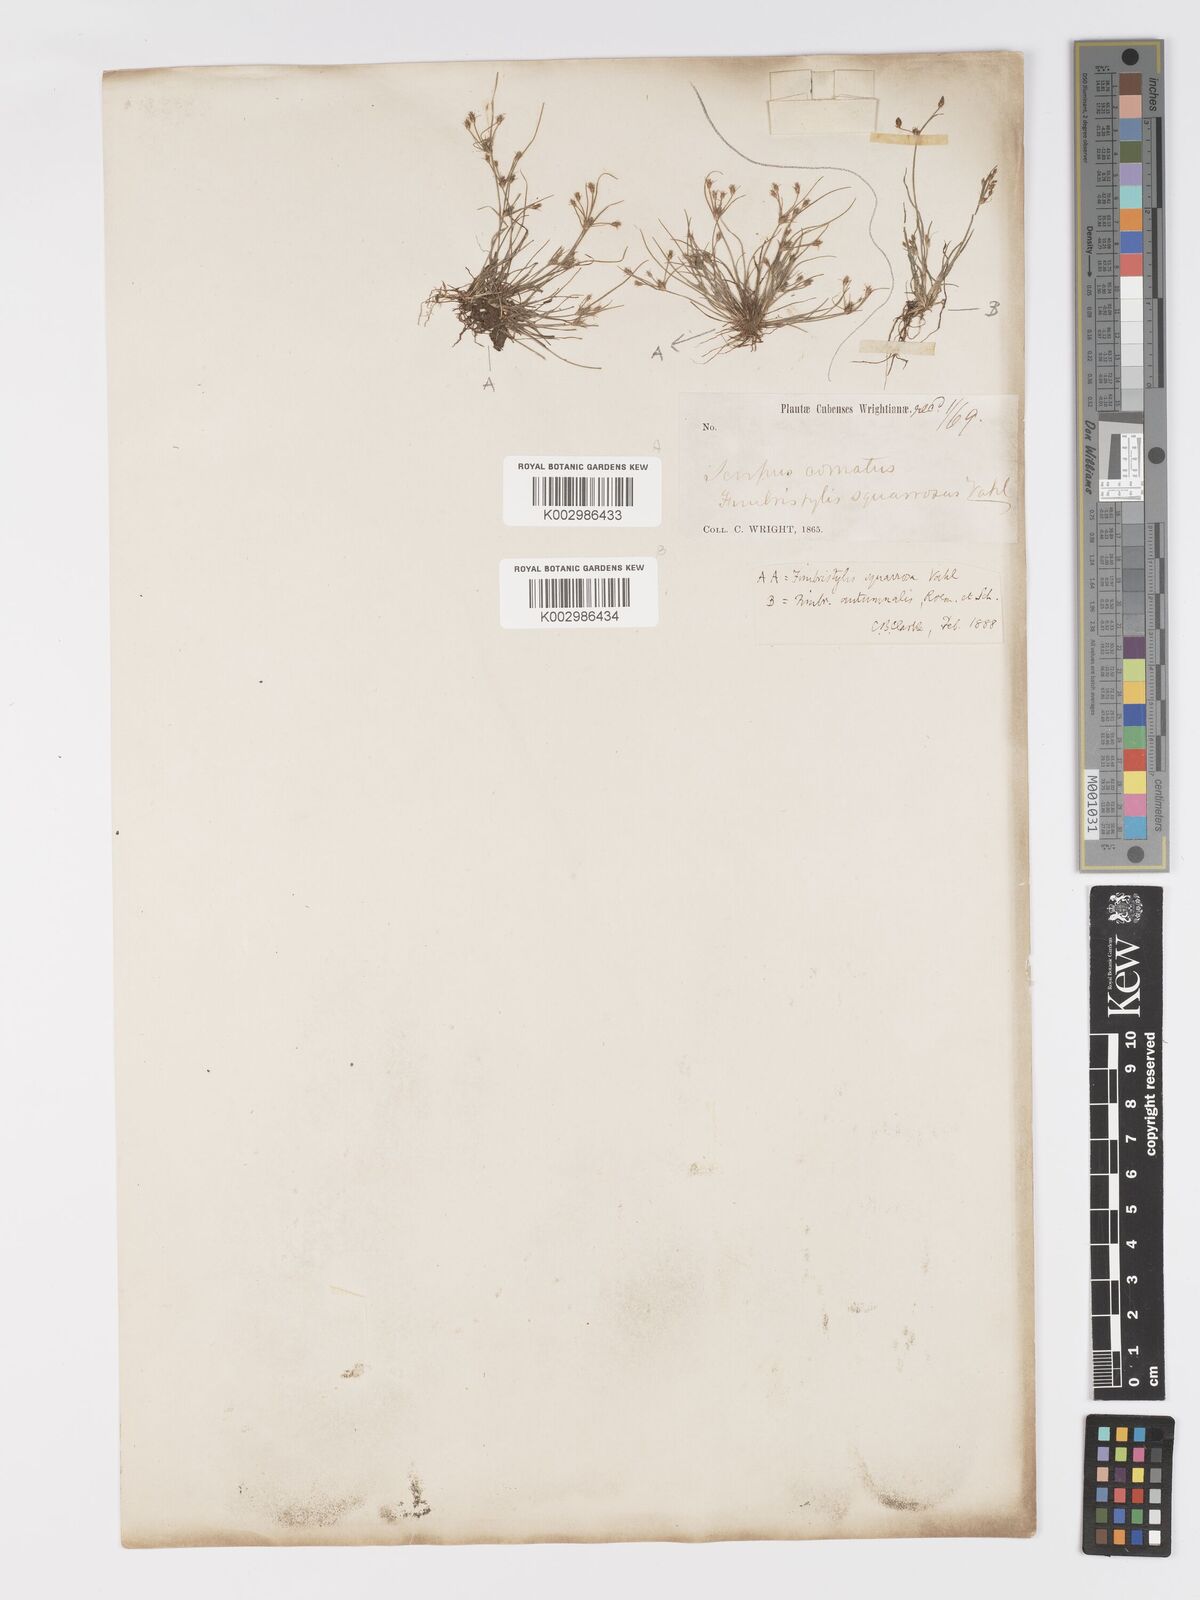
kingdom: Plantae
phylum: Tracheophyta
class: Liliopsida
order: Poales
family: Cyperaceae
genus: Fimbristylis
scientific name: Fimbristylis squarrosa
